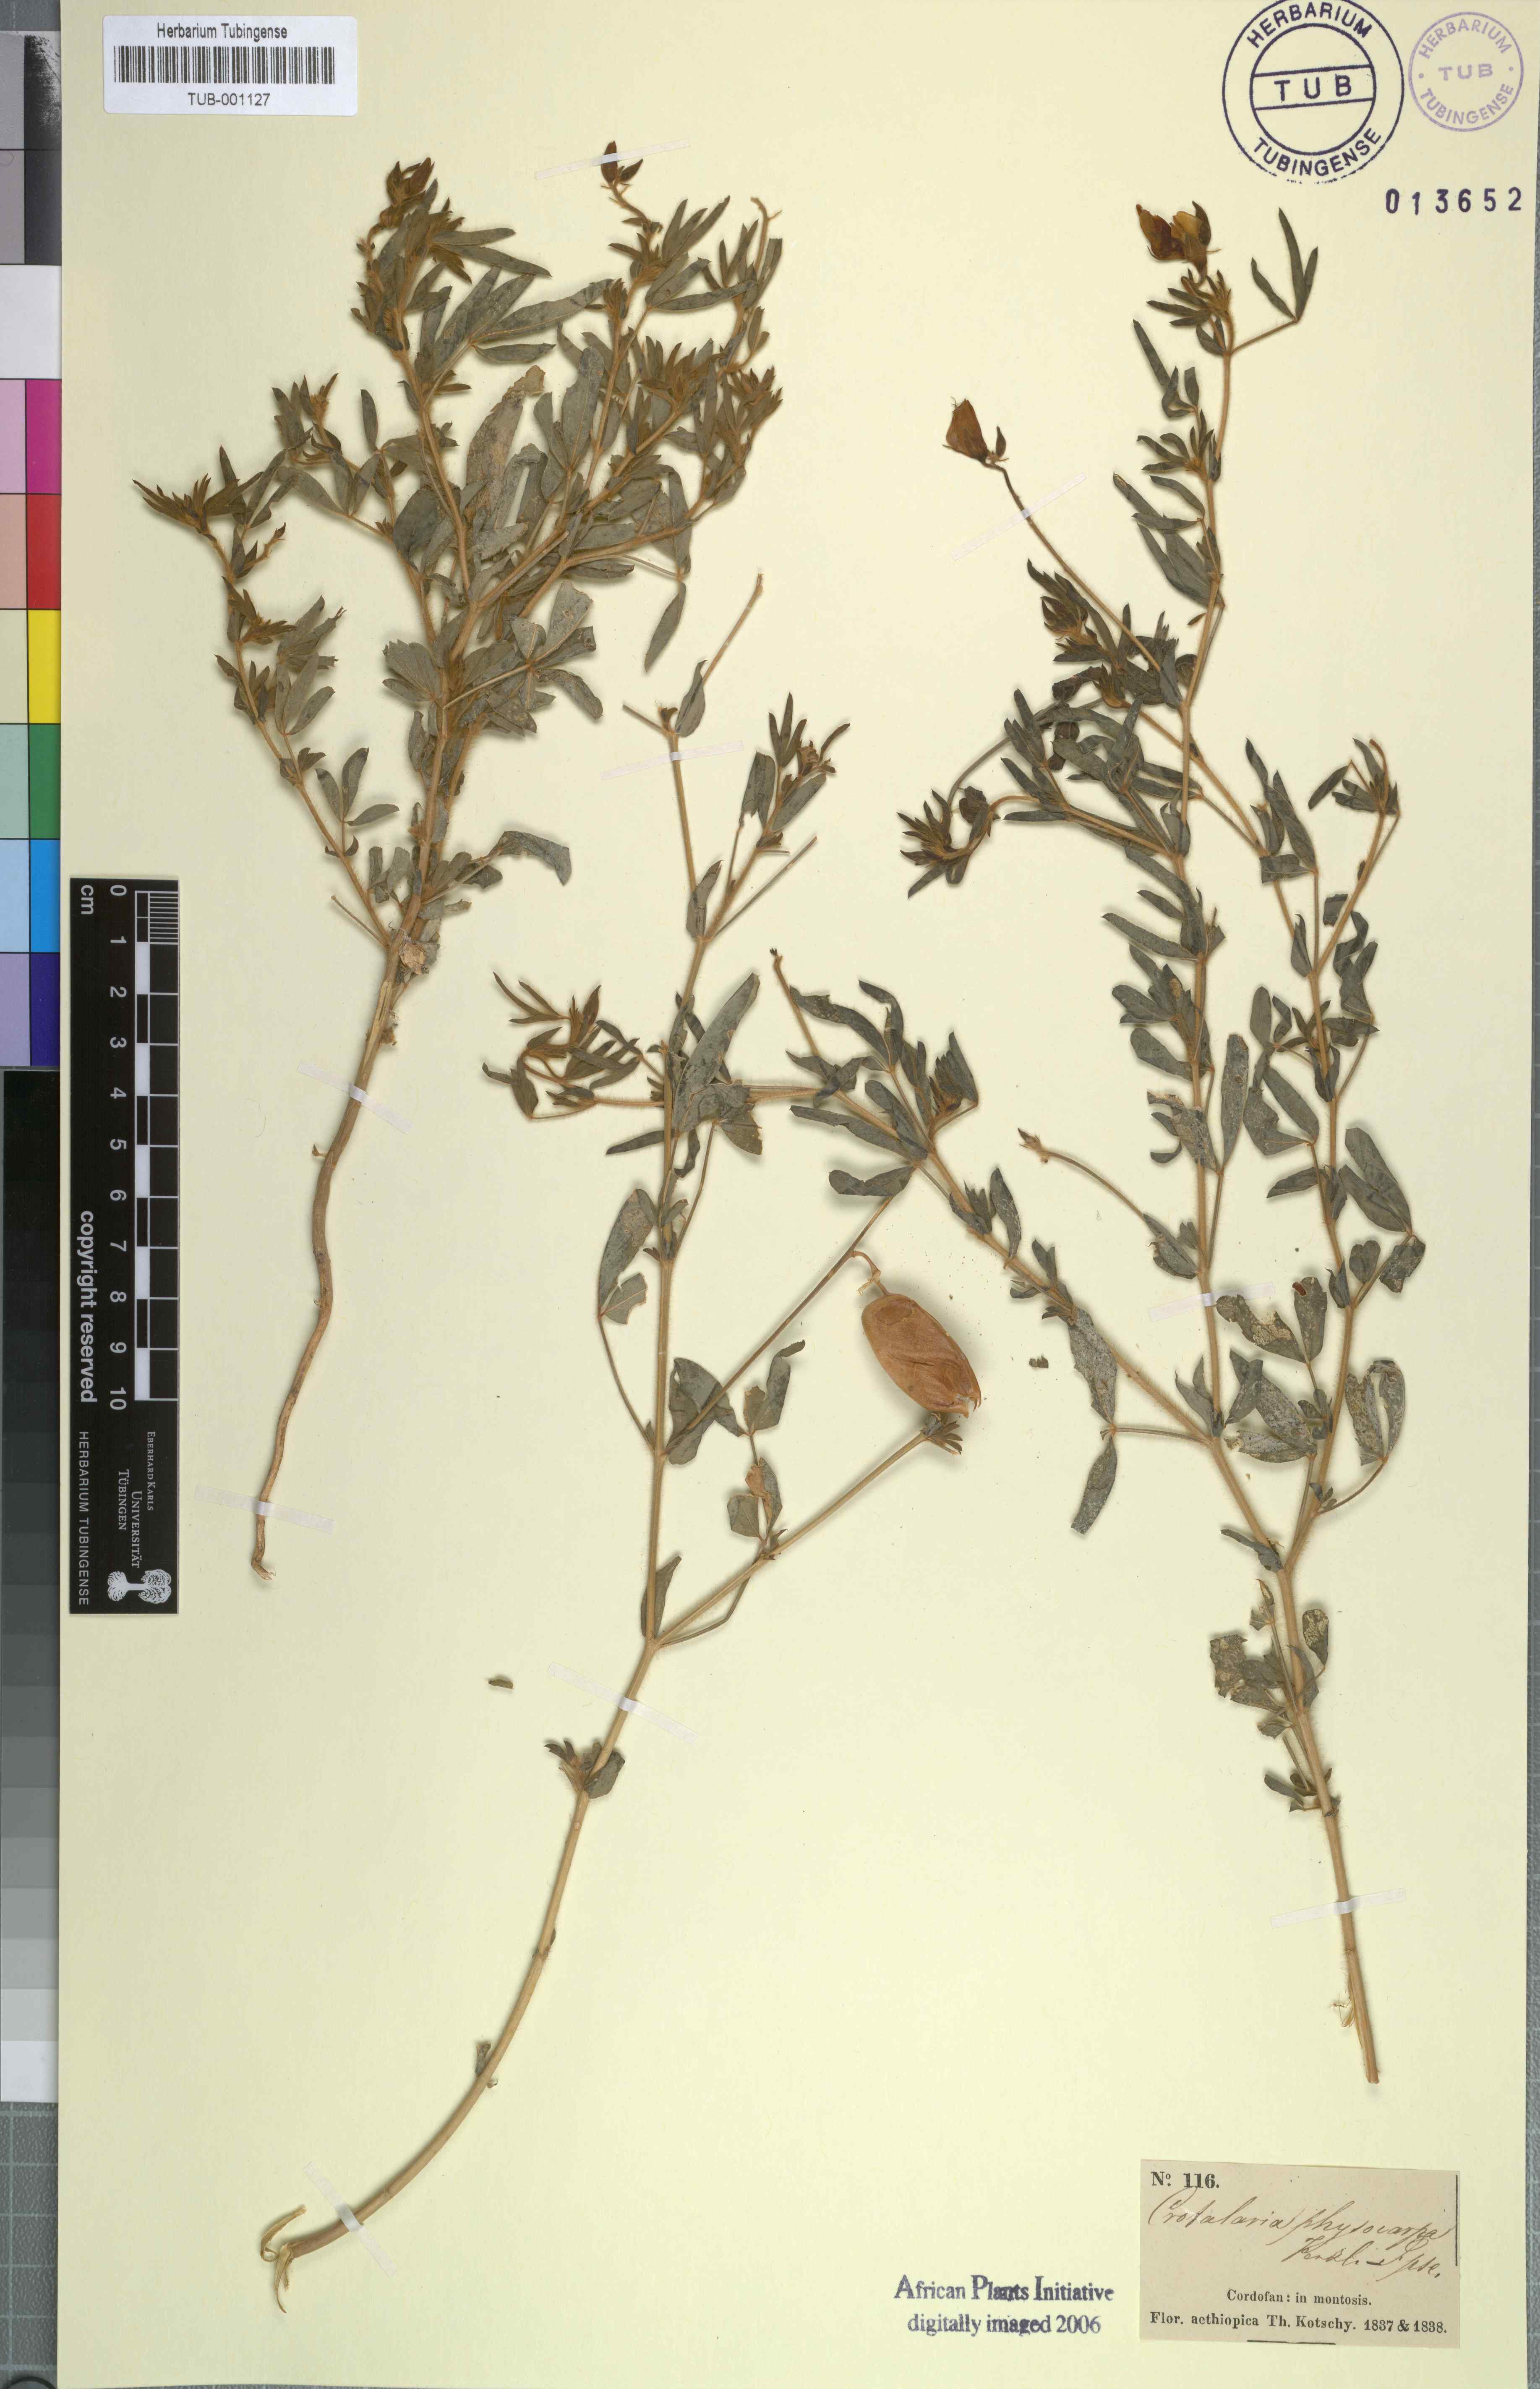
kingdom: Plantae
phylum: Tracheophyta
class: Magnoliopsida
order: Fabales
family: Fabaceae
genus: Crotalaria
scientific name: Crotalaria podocarpa
